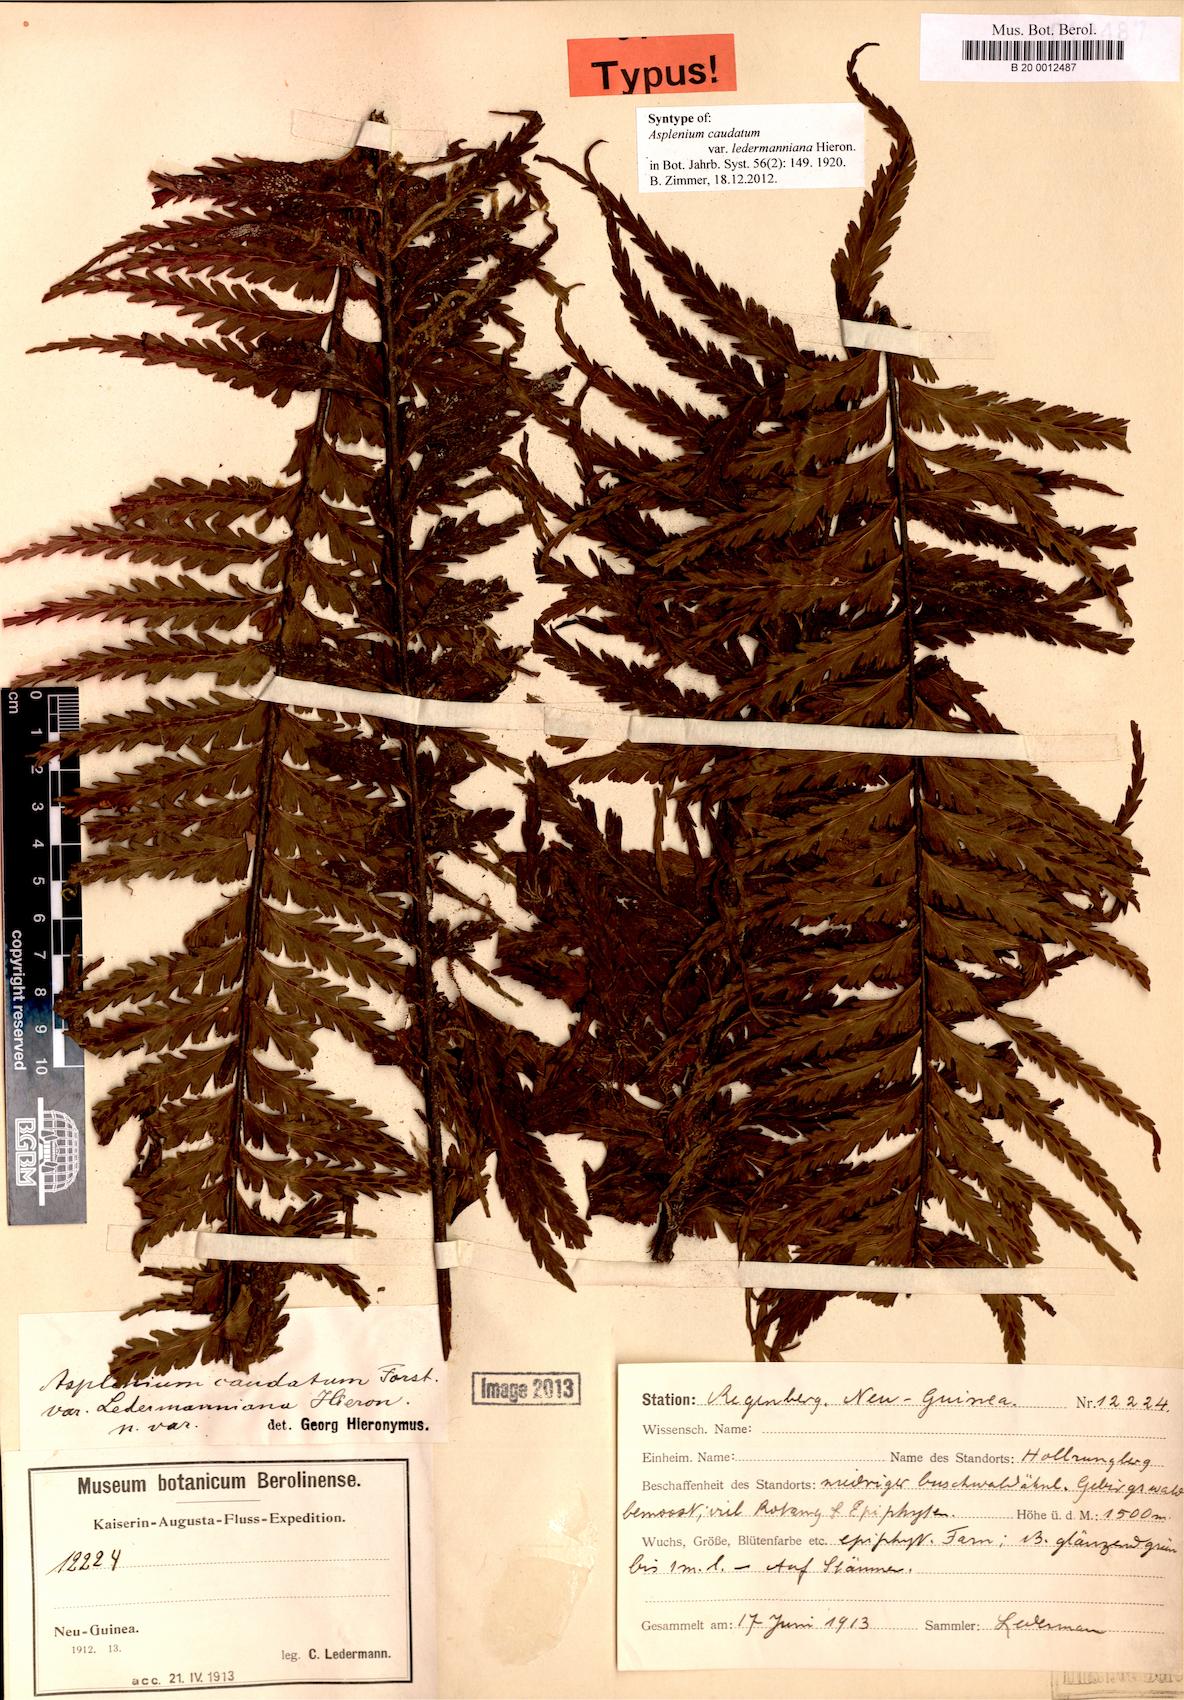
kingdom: Plantae
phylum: Tracheophyta
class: Polypodiopsida
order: Polypodiales
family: Aspleniaceae
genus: Asplenium
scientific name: Asplenium caudatum
